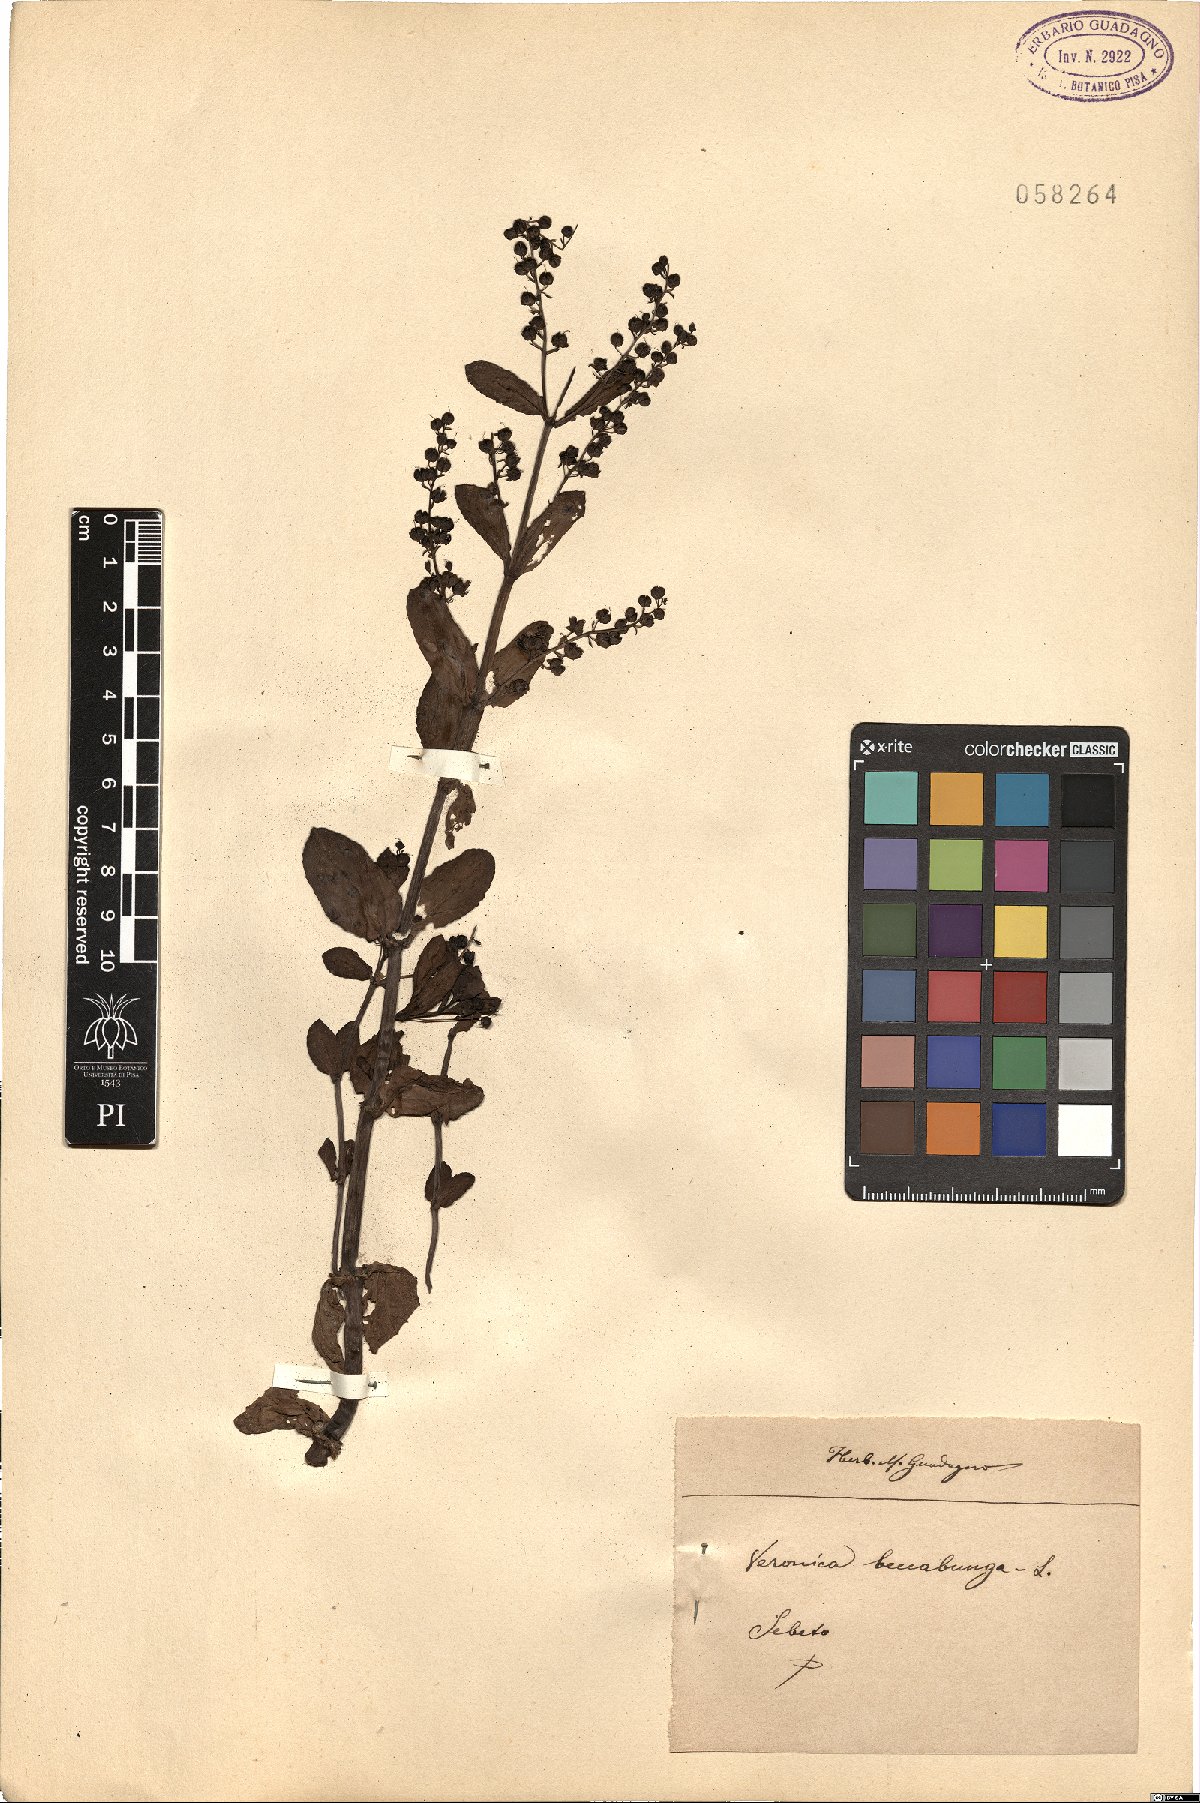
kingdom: Plantae
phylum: Tracheophyta
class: Magnoliopsida
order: Lamiales
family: Plantaginaceae
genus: Veronica
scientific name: Veronica beccabunga
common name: Brooklime
